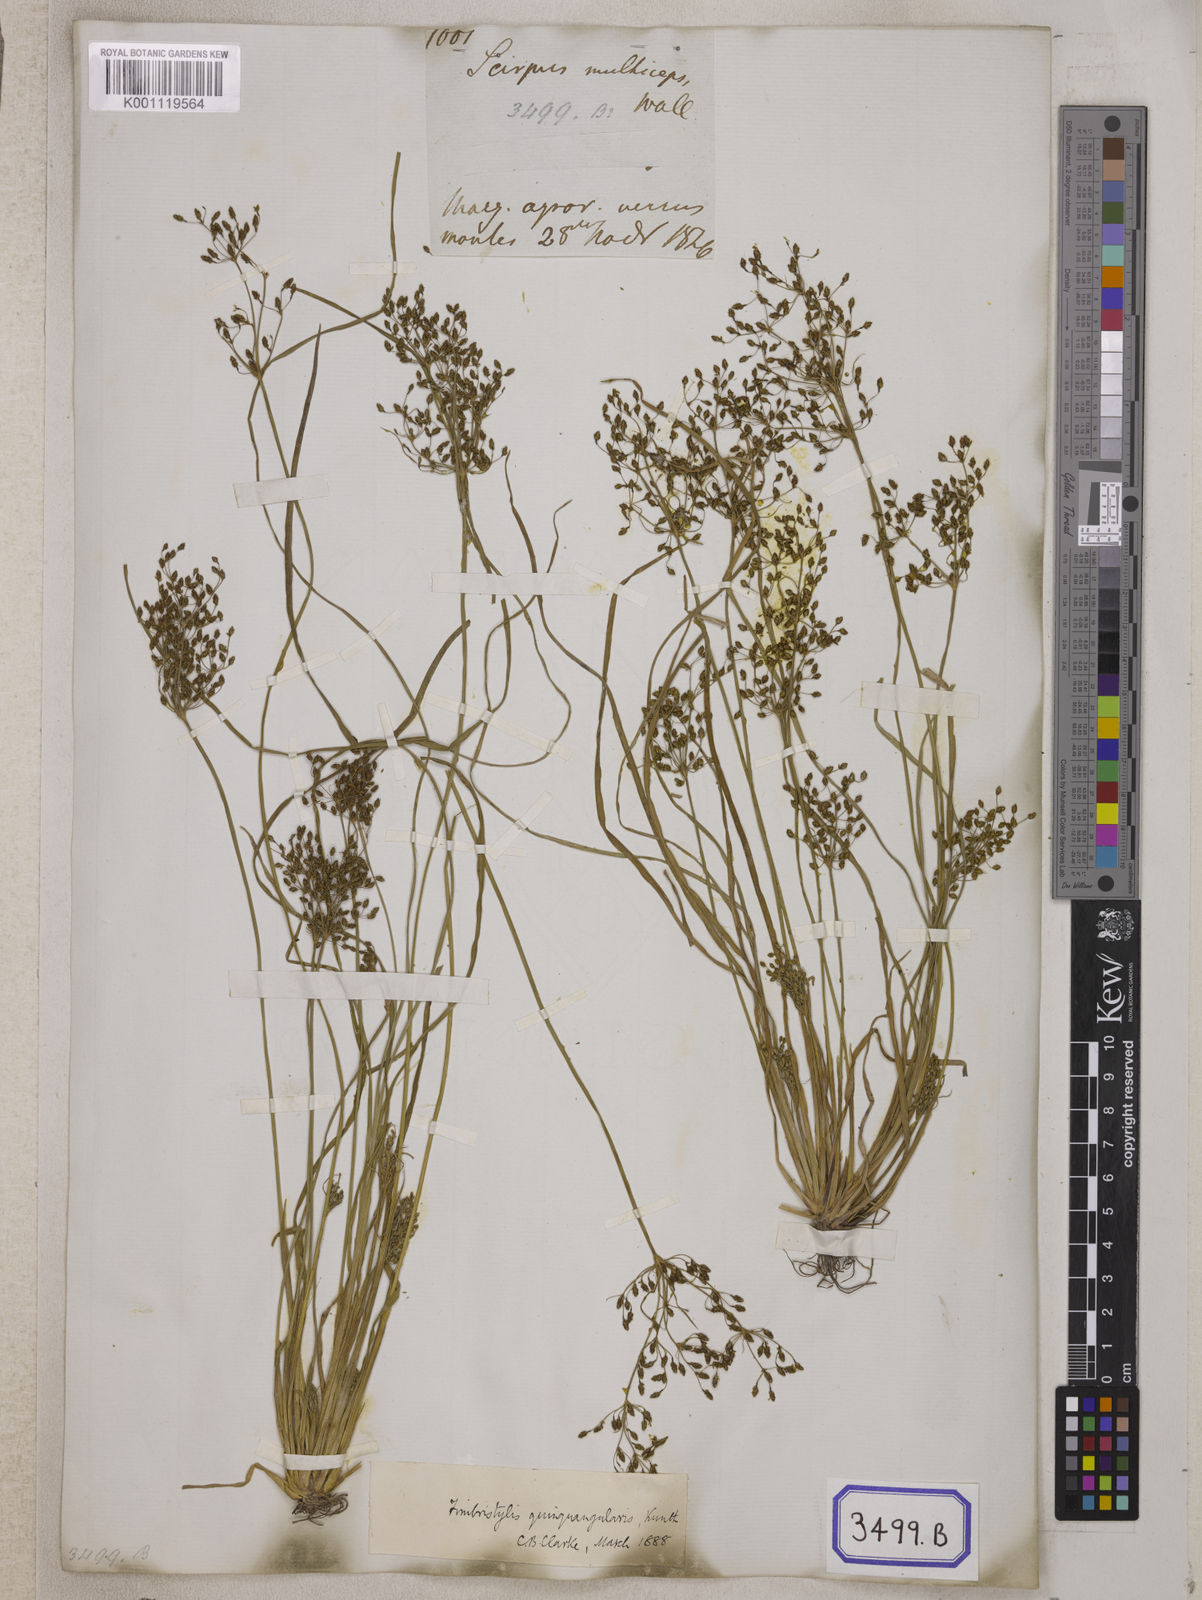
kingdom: Plantae
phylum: Tracheophyta
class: Liliopsida
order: Poales
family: Cyperaceae
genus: Fimbristylis
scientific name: Fimbristylis
